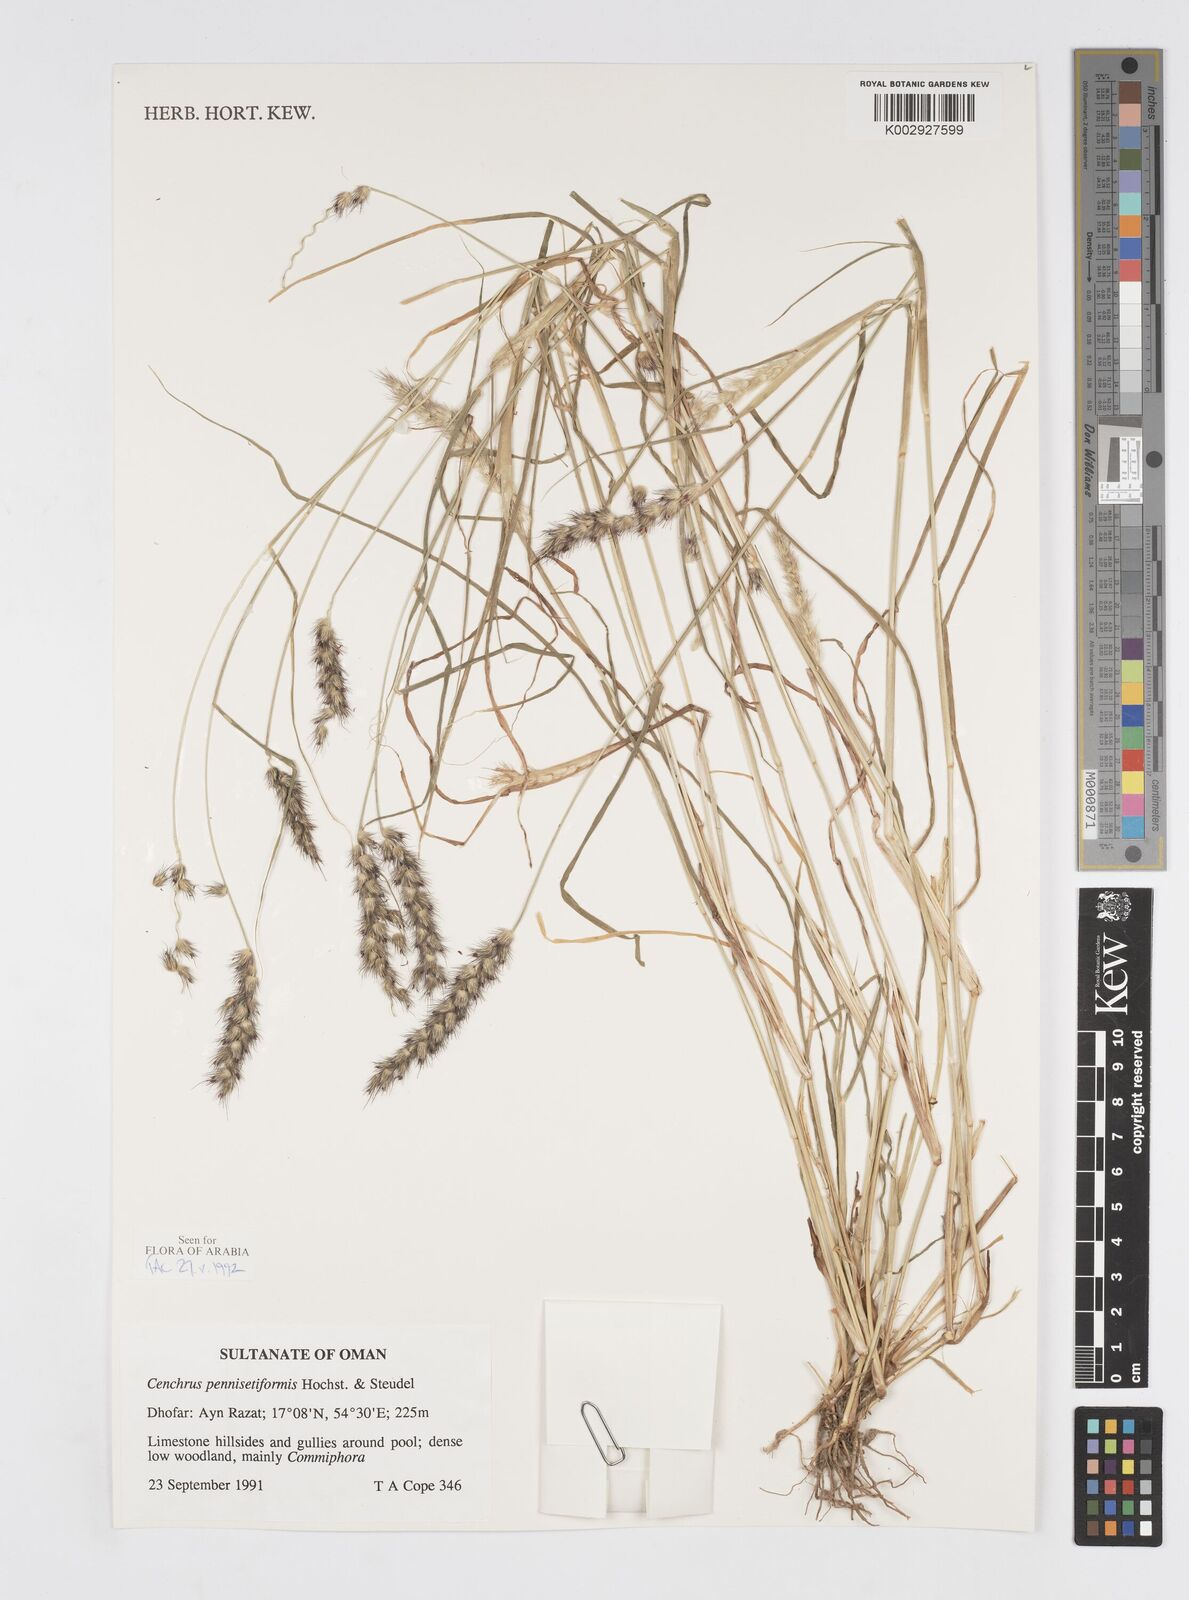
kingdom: Plantae
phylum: Tracheophyta
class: Liliopsida
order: Poales
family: Poaceae
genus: Cenchrus
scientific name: Cenchrus pennisetiformis
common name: Cloncurry
